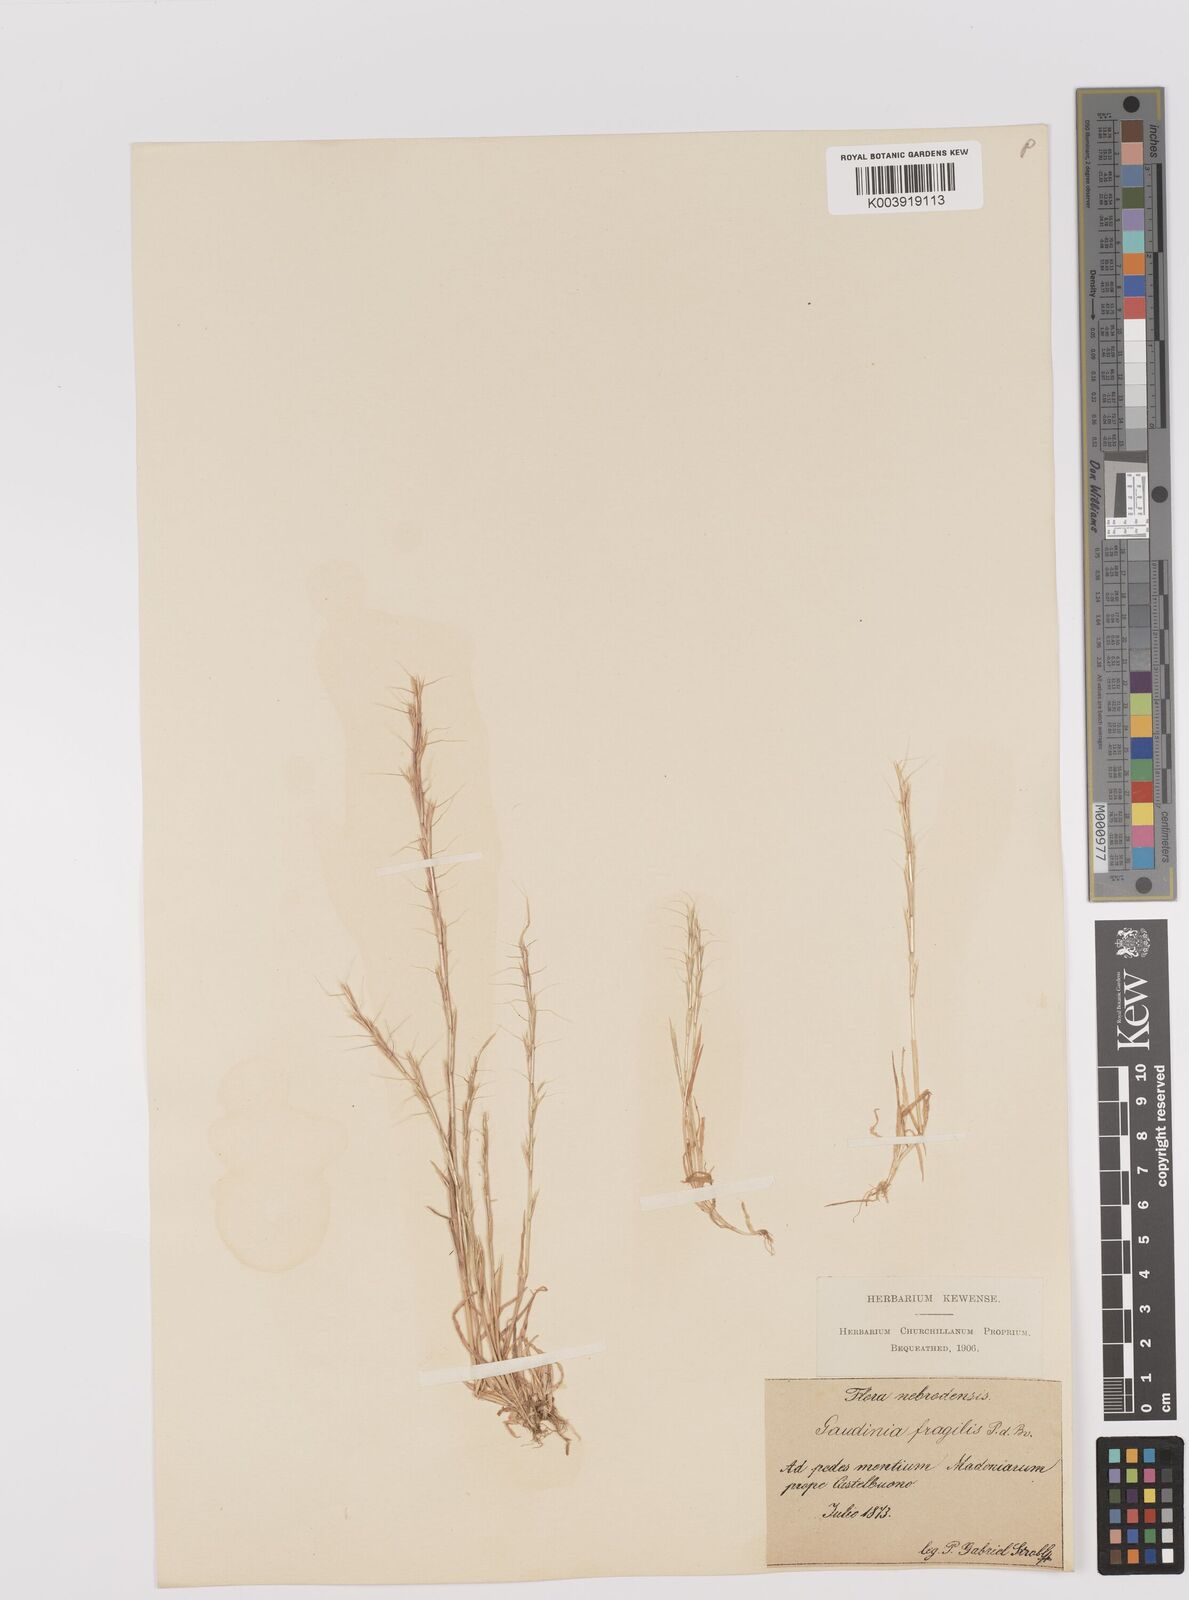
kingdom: Plantae
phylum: Tracheophyta
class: Liliopsida
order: Poales
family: Poaceae
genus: Gaudinia
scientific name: Gaudinia fragilis
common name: French oat-grass
